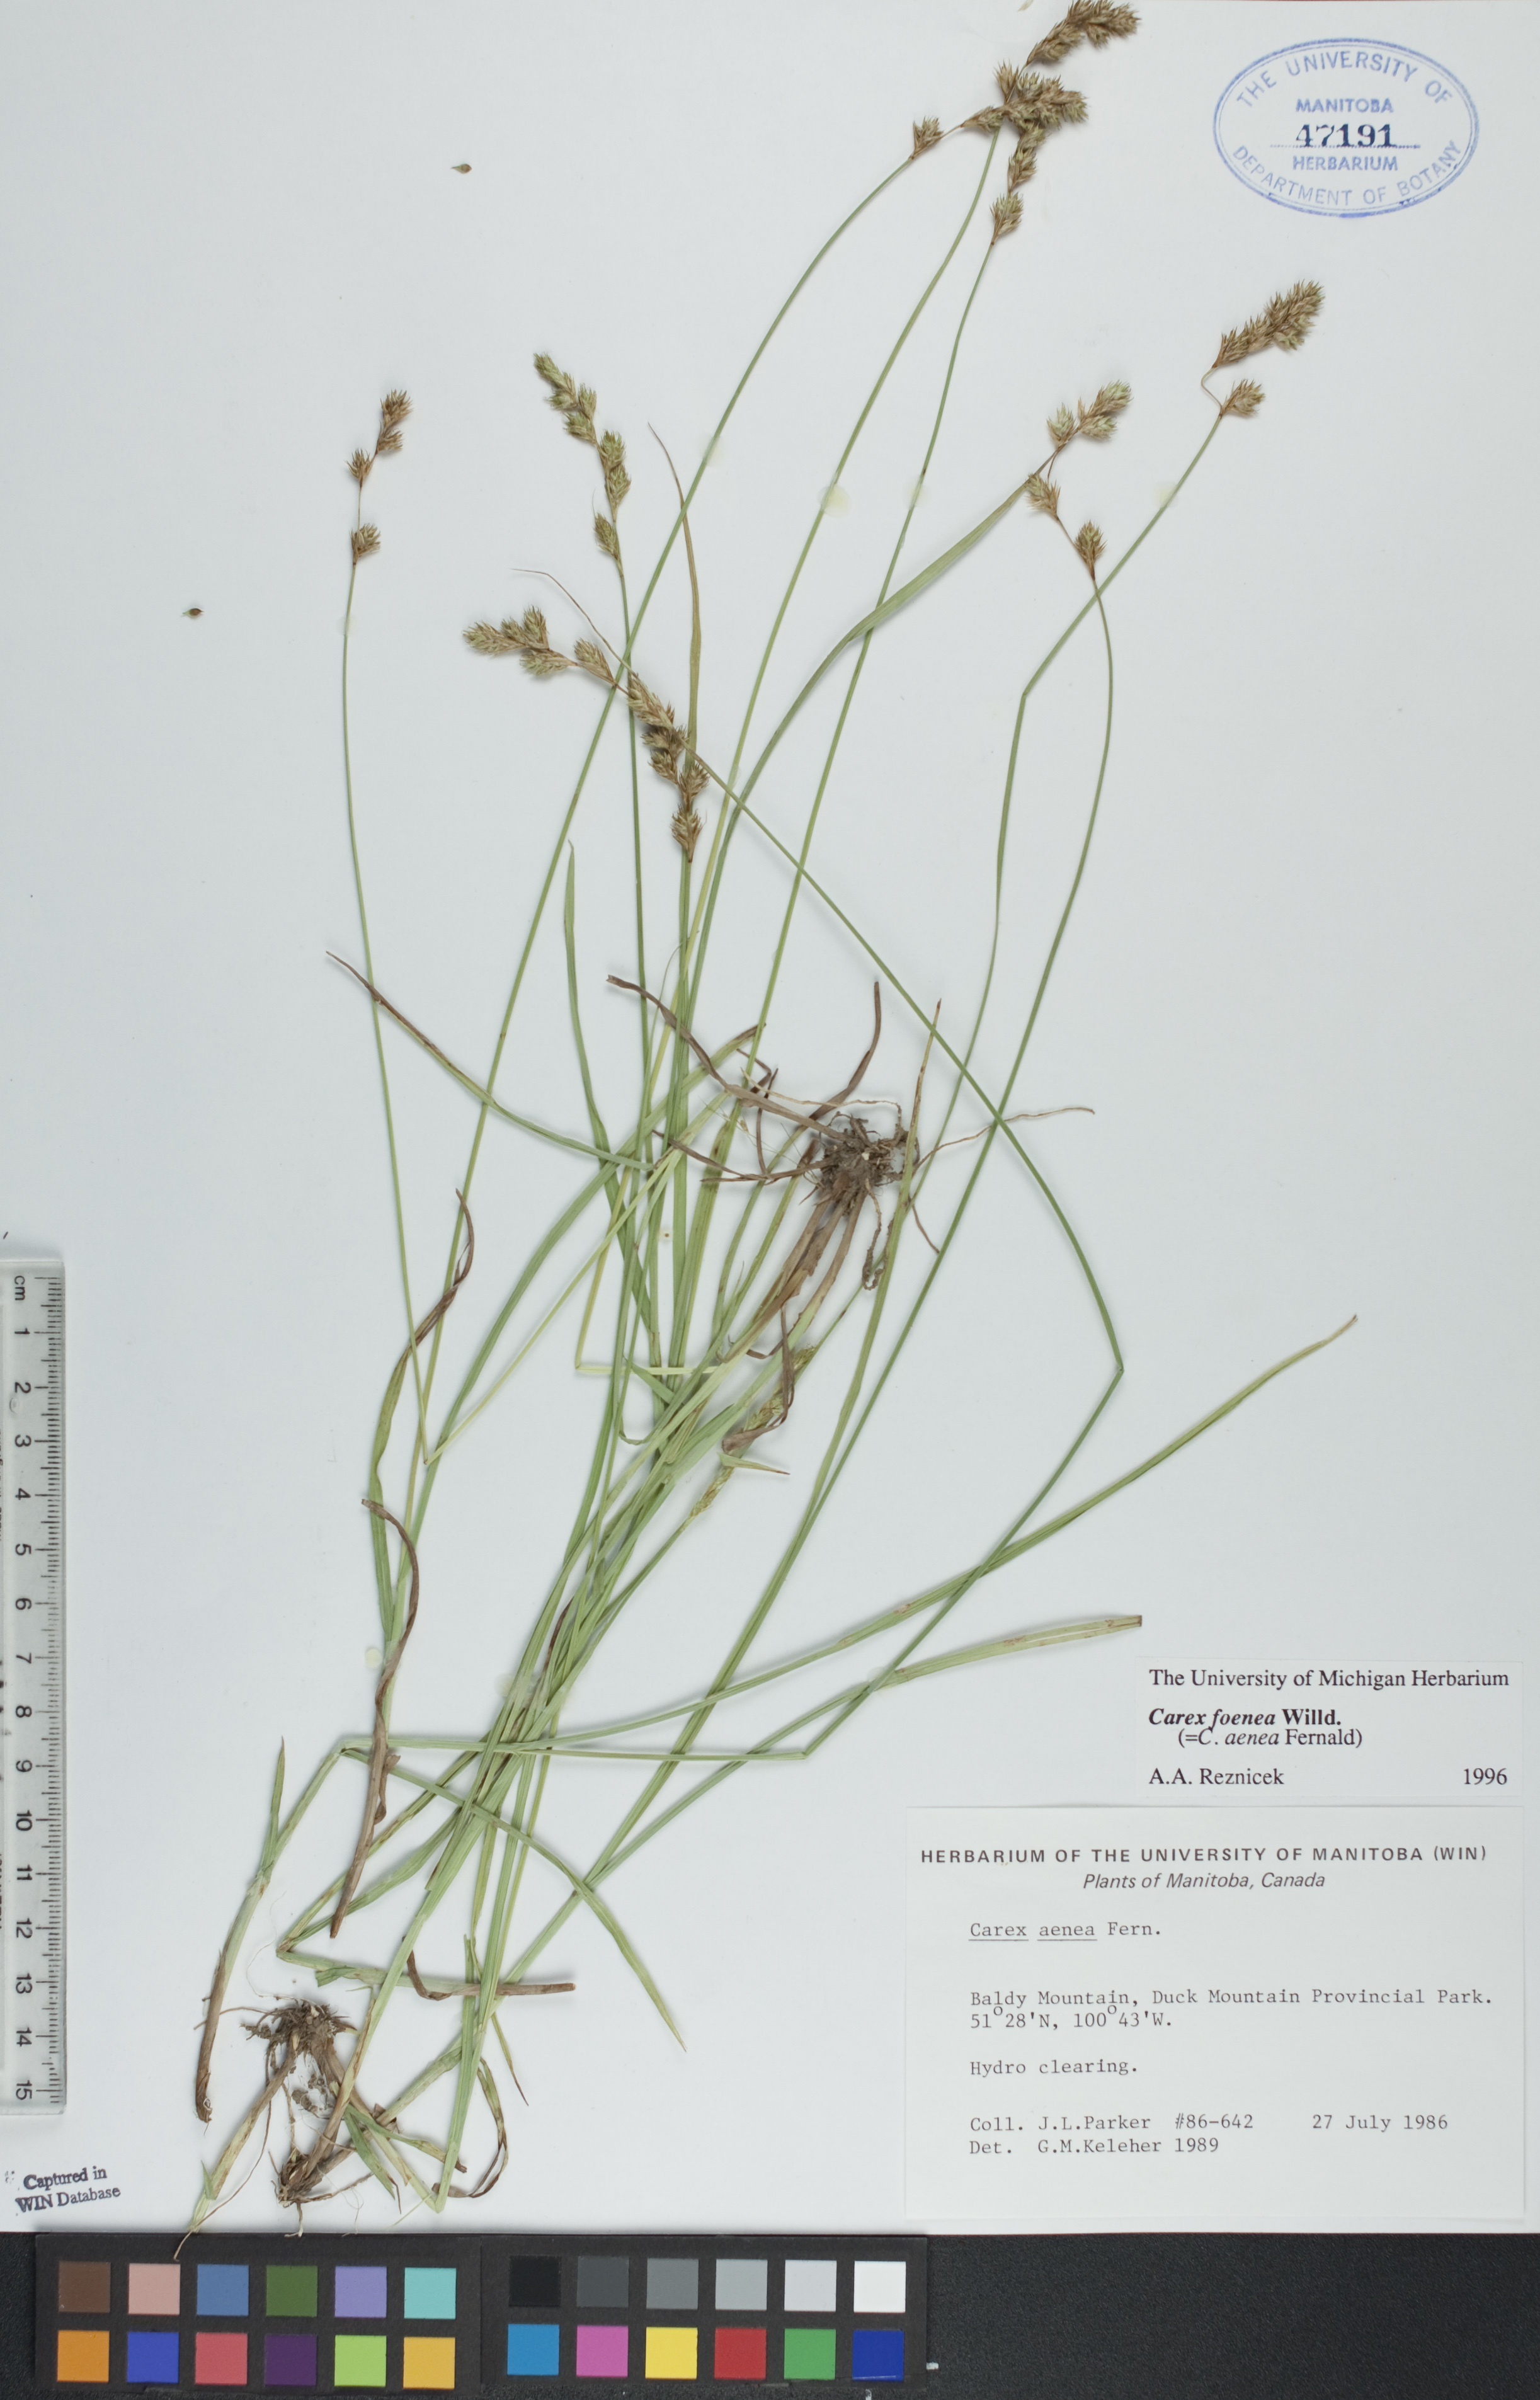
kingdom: Plantae
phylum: Tracheophyta
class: Liliopsida
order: Poales
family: Cyperaceae
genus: Carex
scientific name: Carex foenea
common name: Bronze sedge
